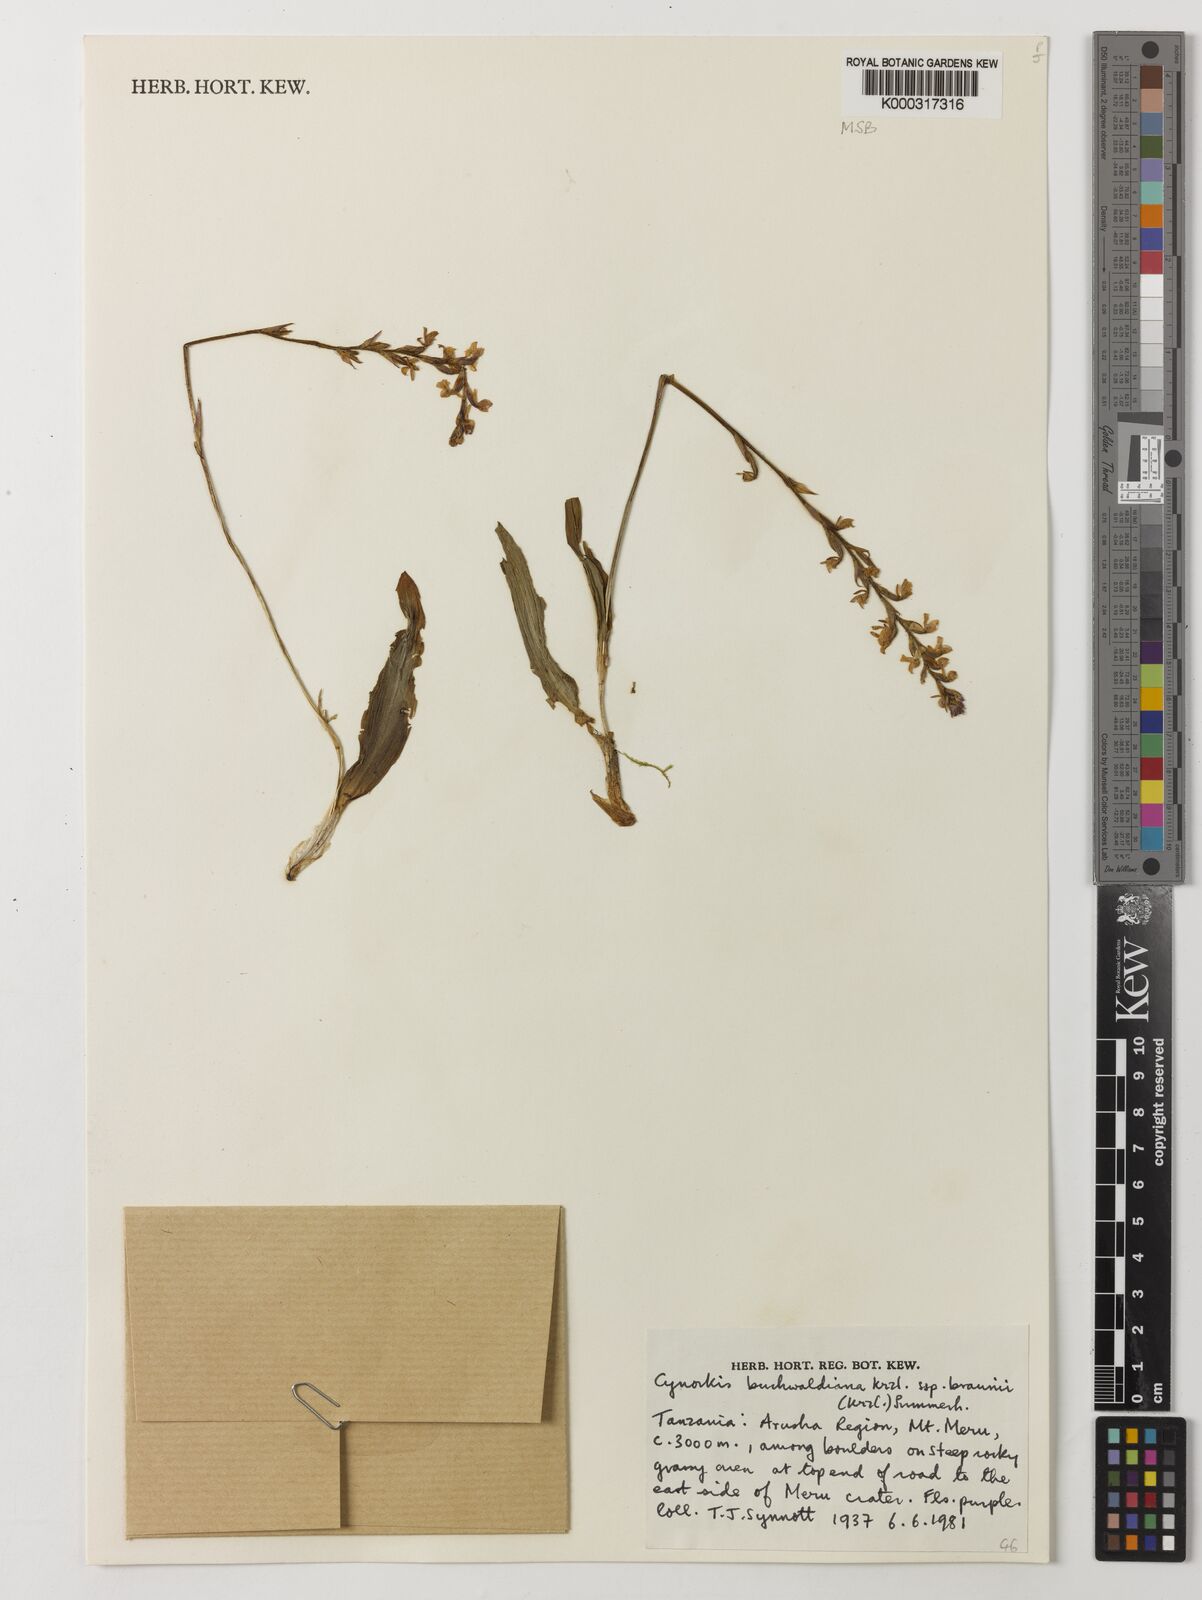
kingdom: Plantae
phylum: Tracheophyta
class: Liliopsida
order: Asparagales
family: Orchidaceae
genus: Cynorkis
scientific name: Cynorkis buchwaldiana
